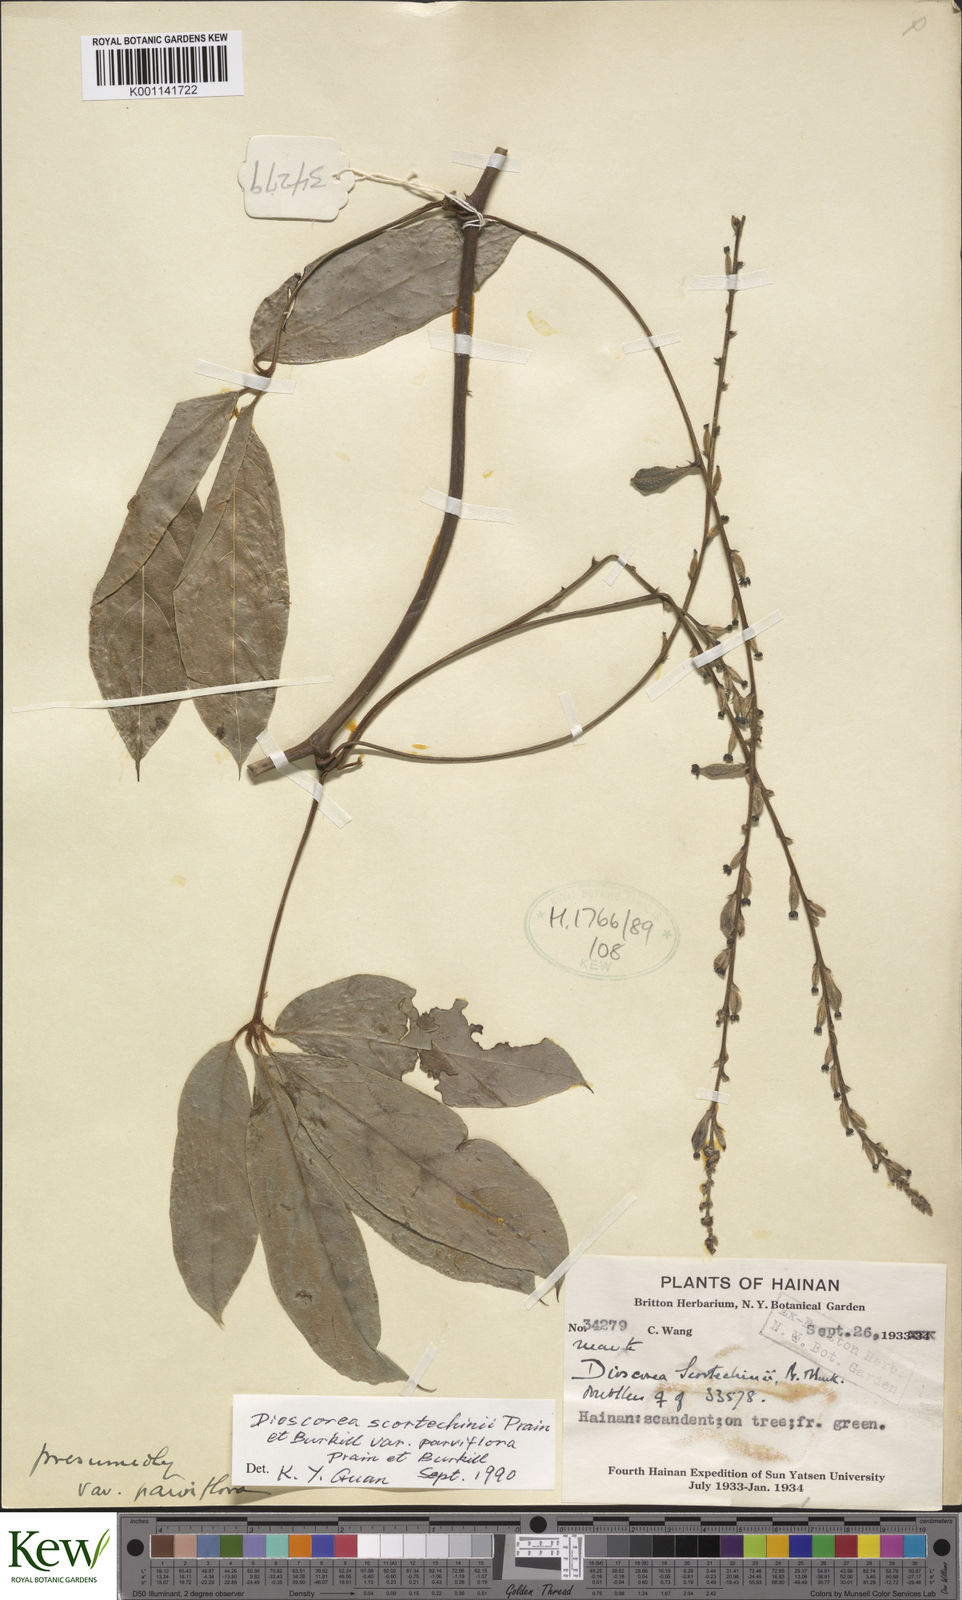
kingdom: Plantae
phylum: Tracheophyta
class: Liliopsida
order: Dioscoreales
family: Dioscoreaceae
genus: Dioscorea
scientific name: Dioscorea scortechinii
